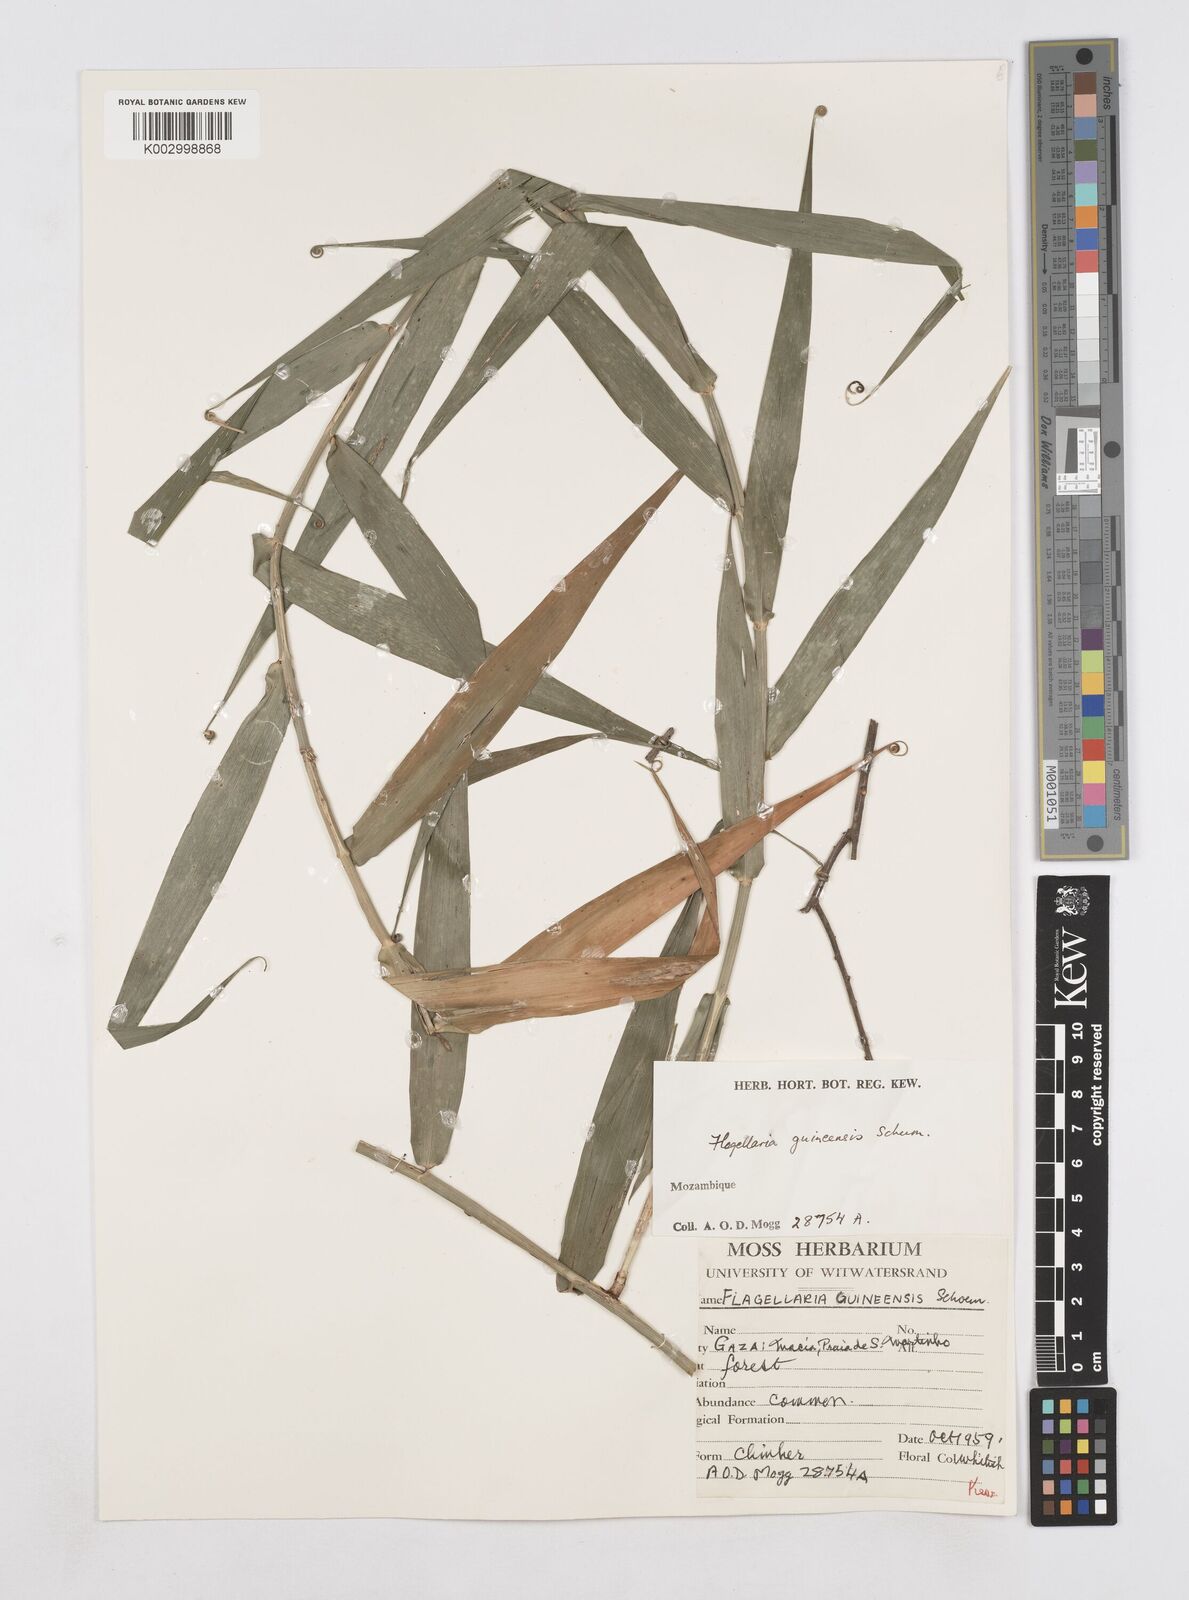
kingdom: Plantae
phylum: Tracheophyta
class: Liliopsida
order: Poales
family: Flagellariaceae
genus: Flagellaria
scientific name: Flagellaria guineensis
